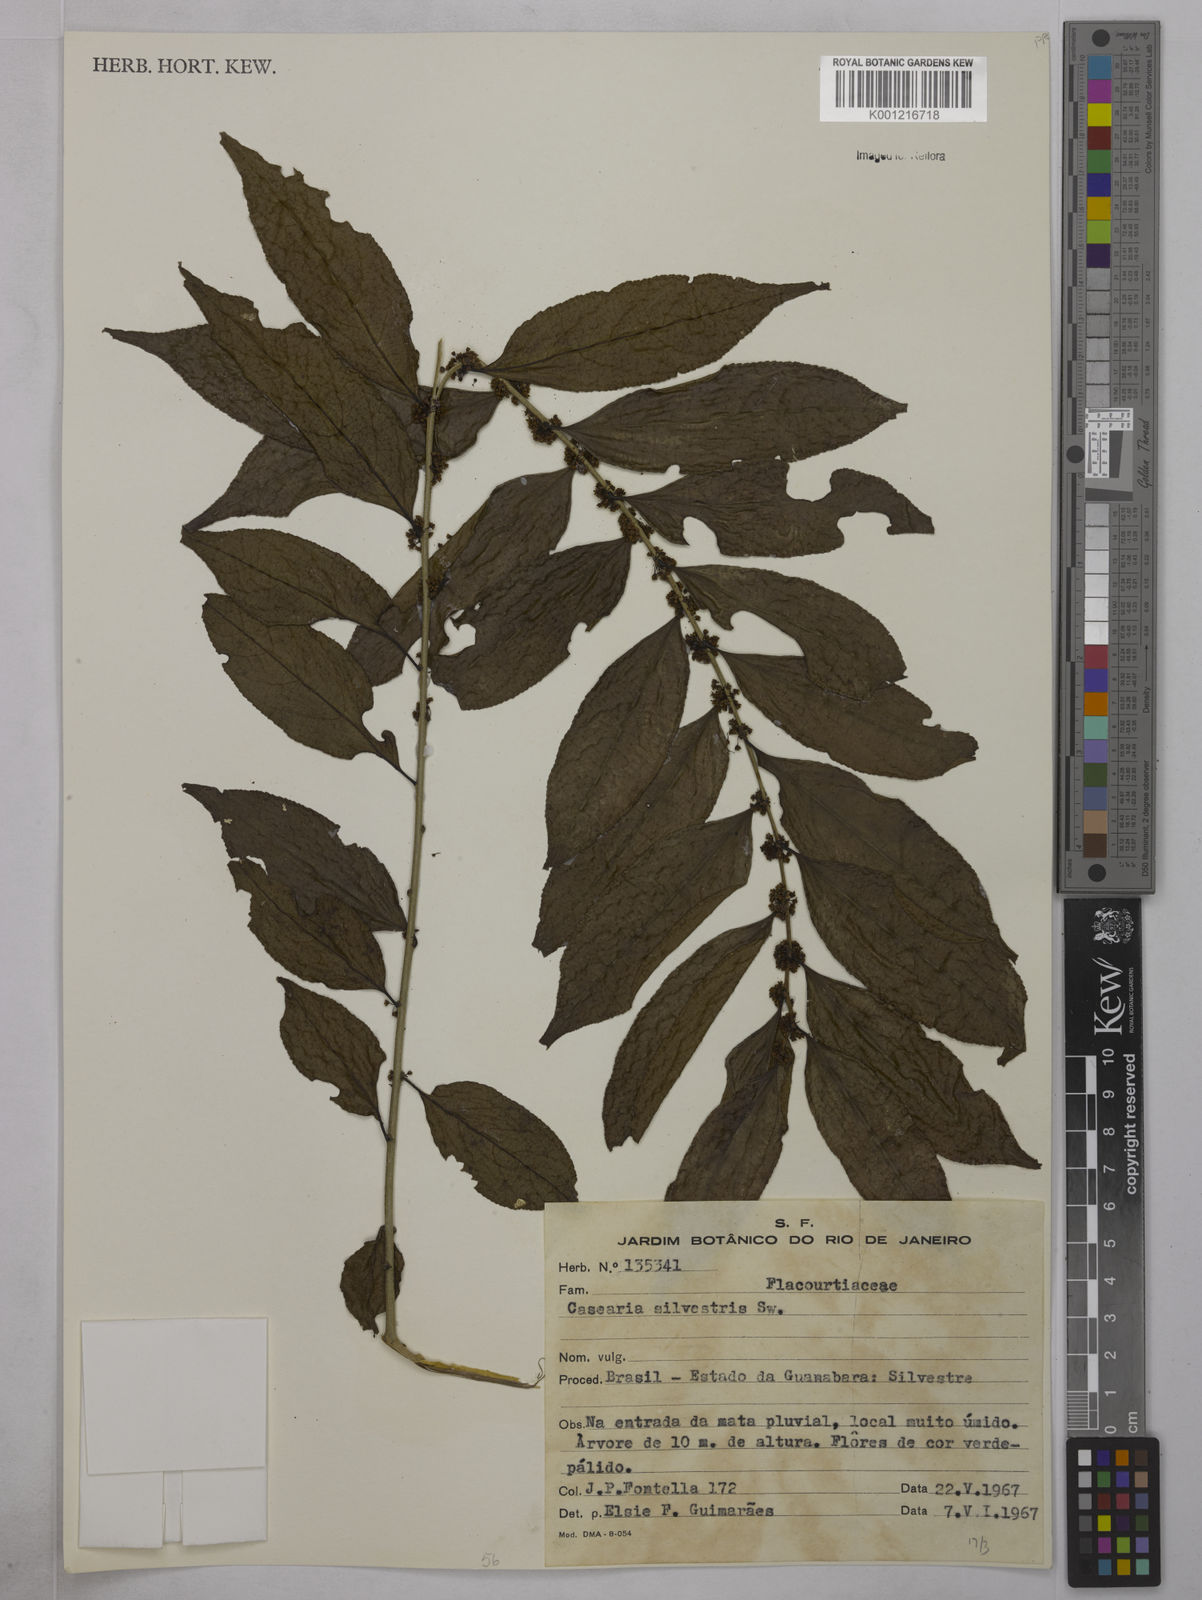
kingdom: Plantae
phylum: Tracheophyta
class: Magnoliopsida
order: Malpighiales
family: Salicaceae
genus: Casearia
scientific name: Casearia sylvestris
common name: Wild sage
